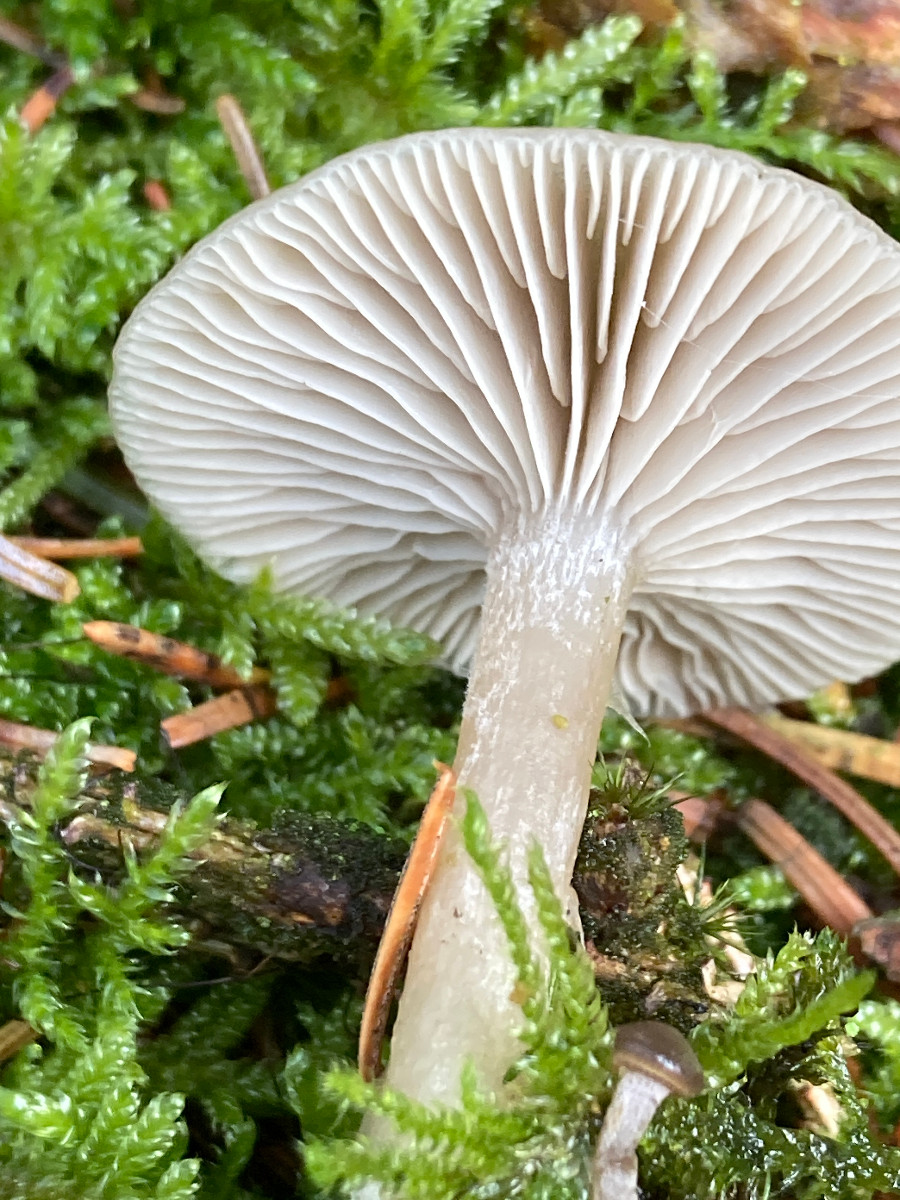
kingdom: Fungi
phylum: Basidiomycota
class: Agaricomycetes
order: Agaricales
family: Tricholomataceae
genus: Clitocybe
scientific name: Clitocybe
